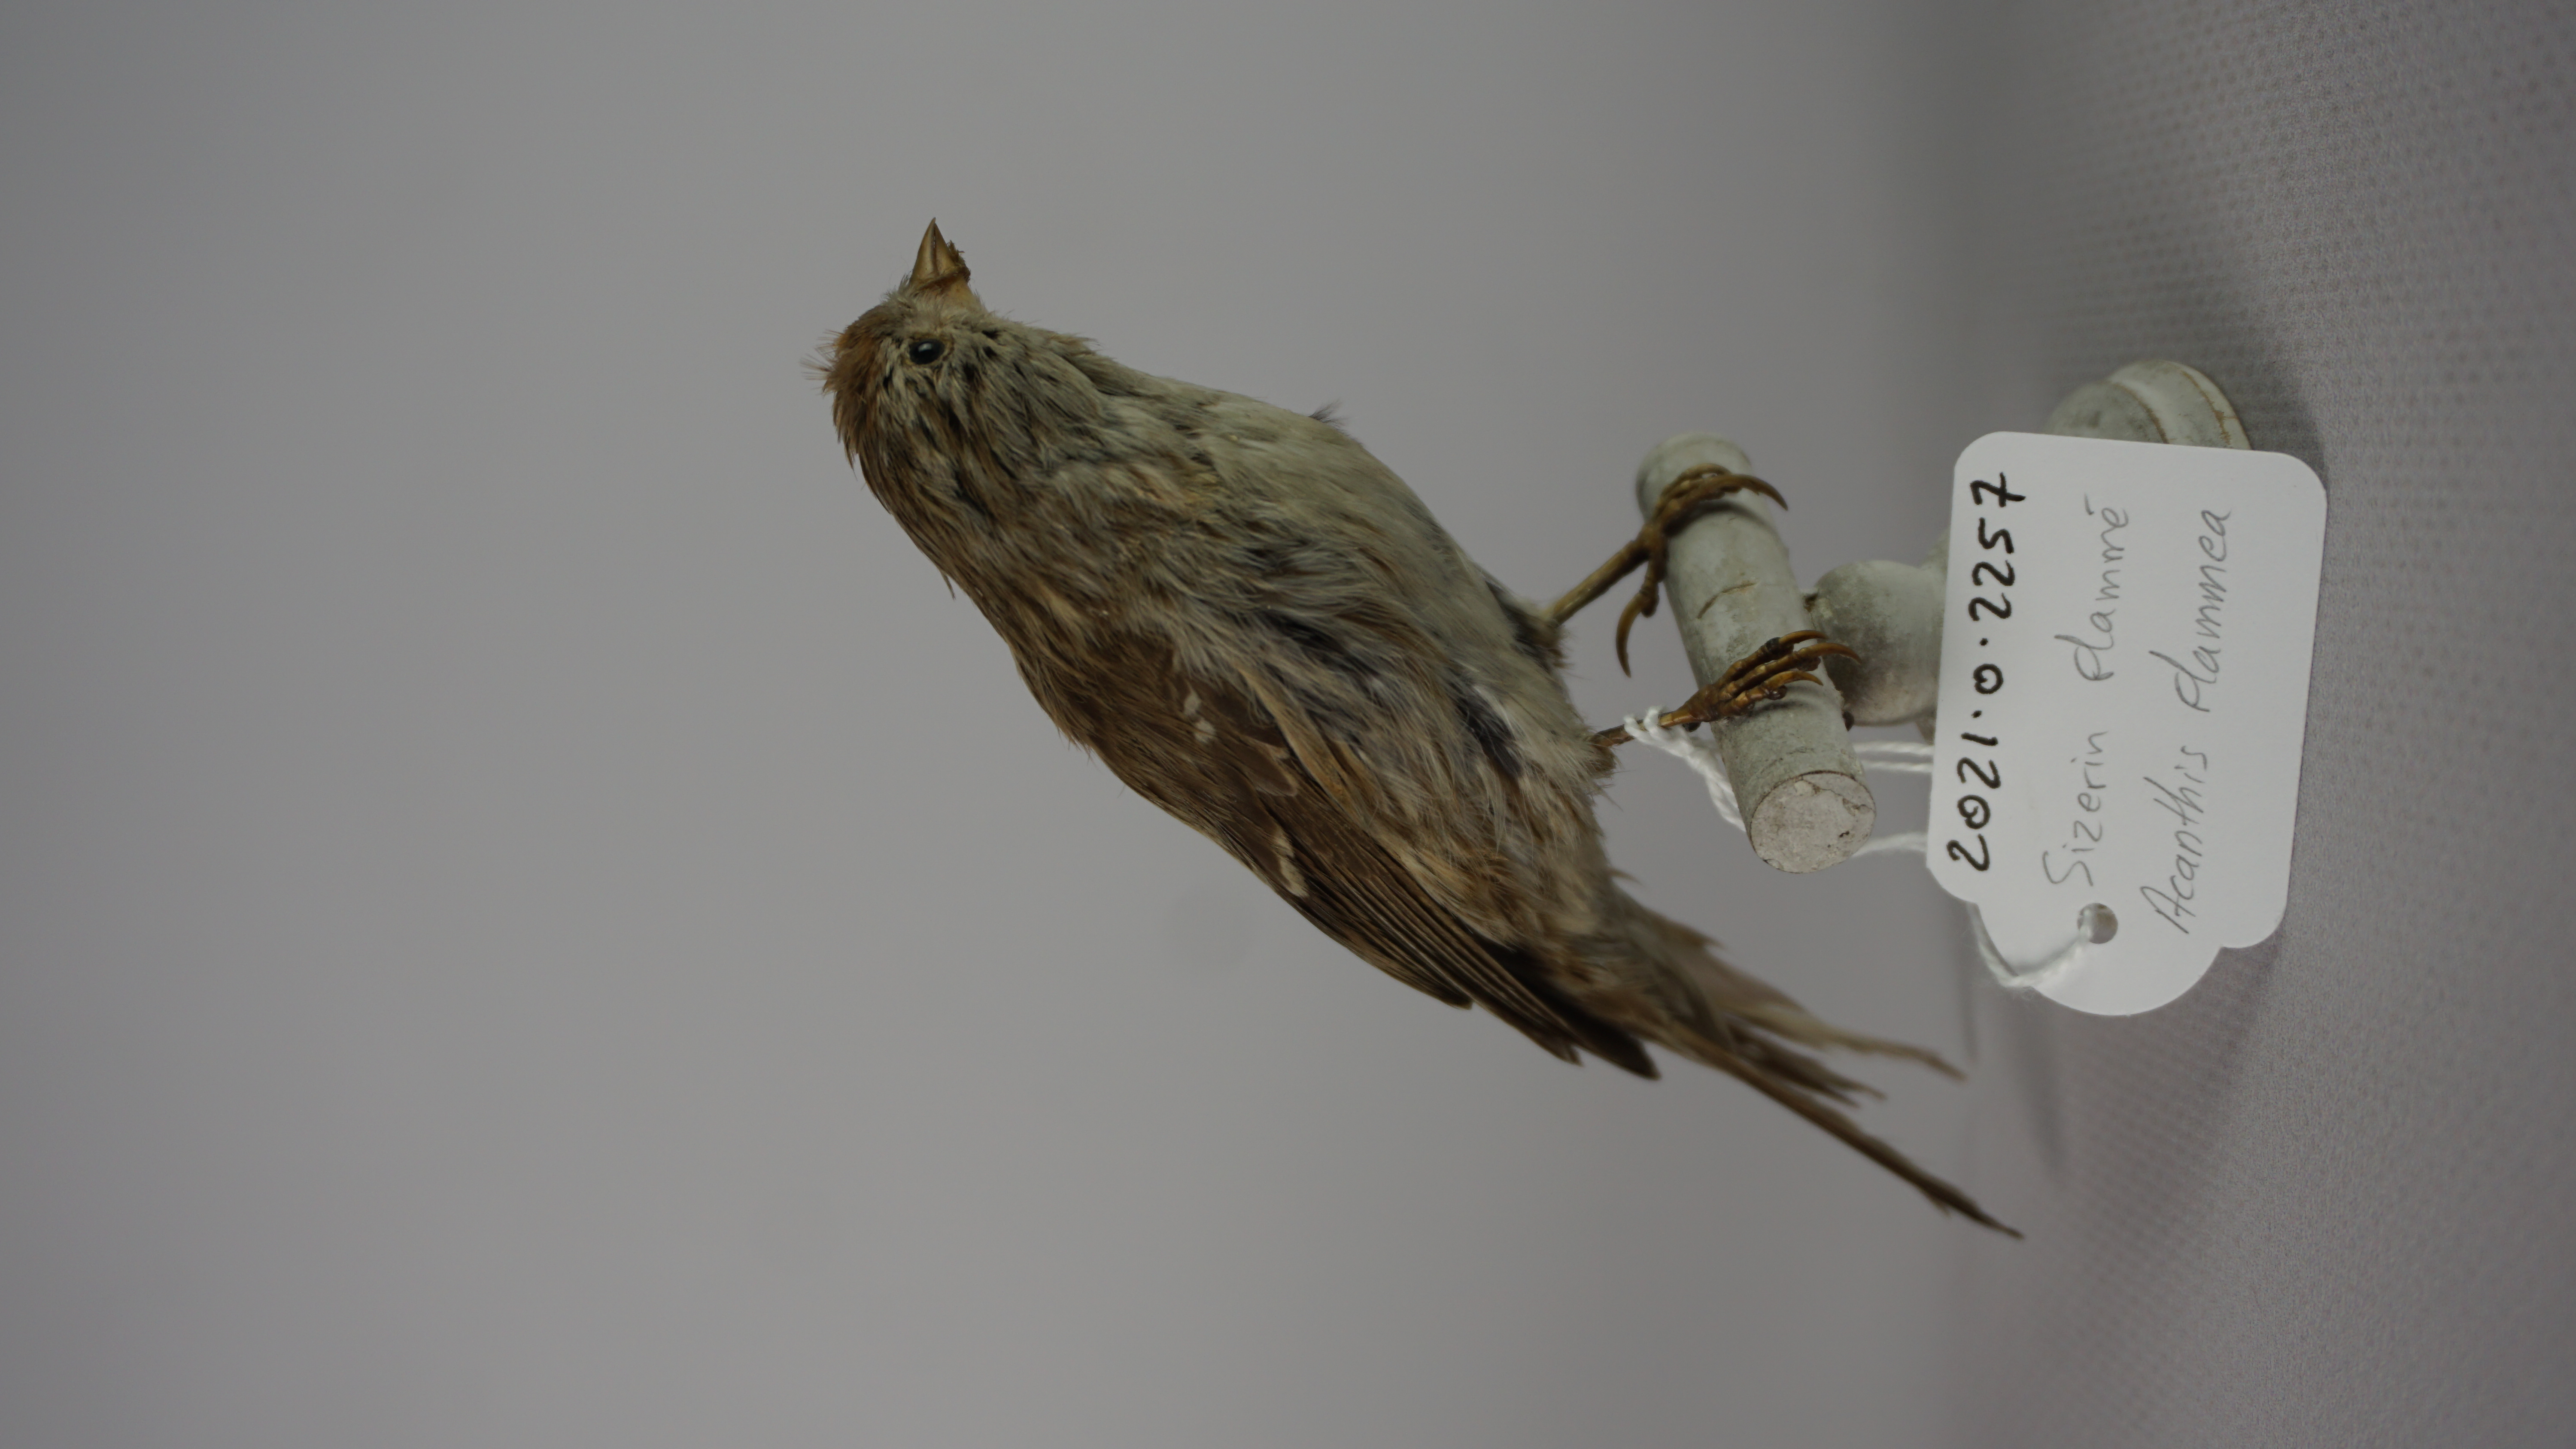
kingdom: Animalia
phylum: Chordata
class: Aves
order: Passeriformes
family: Fringillidae
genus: Acanthis
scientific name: Acanthis flammea
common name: Common redpoll
